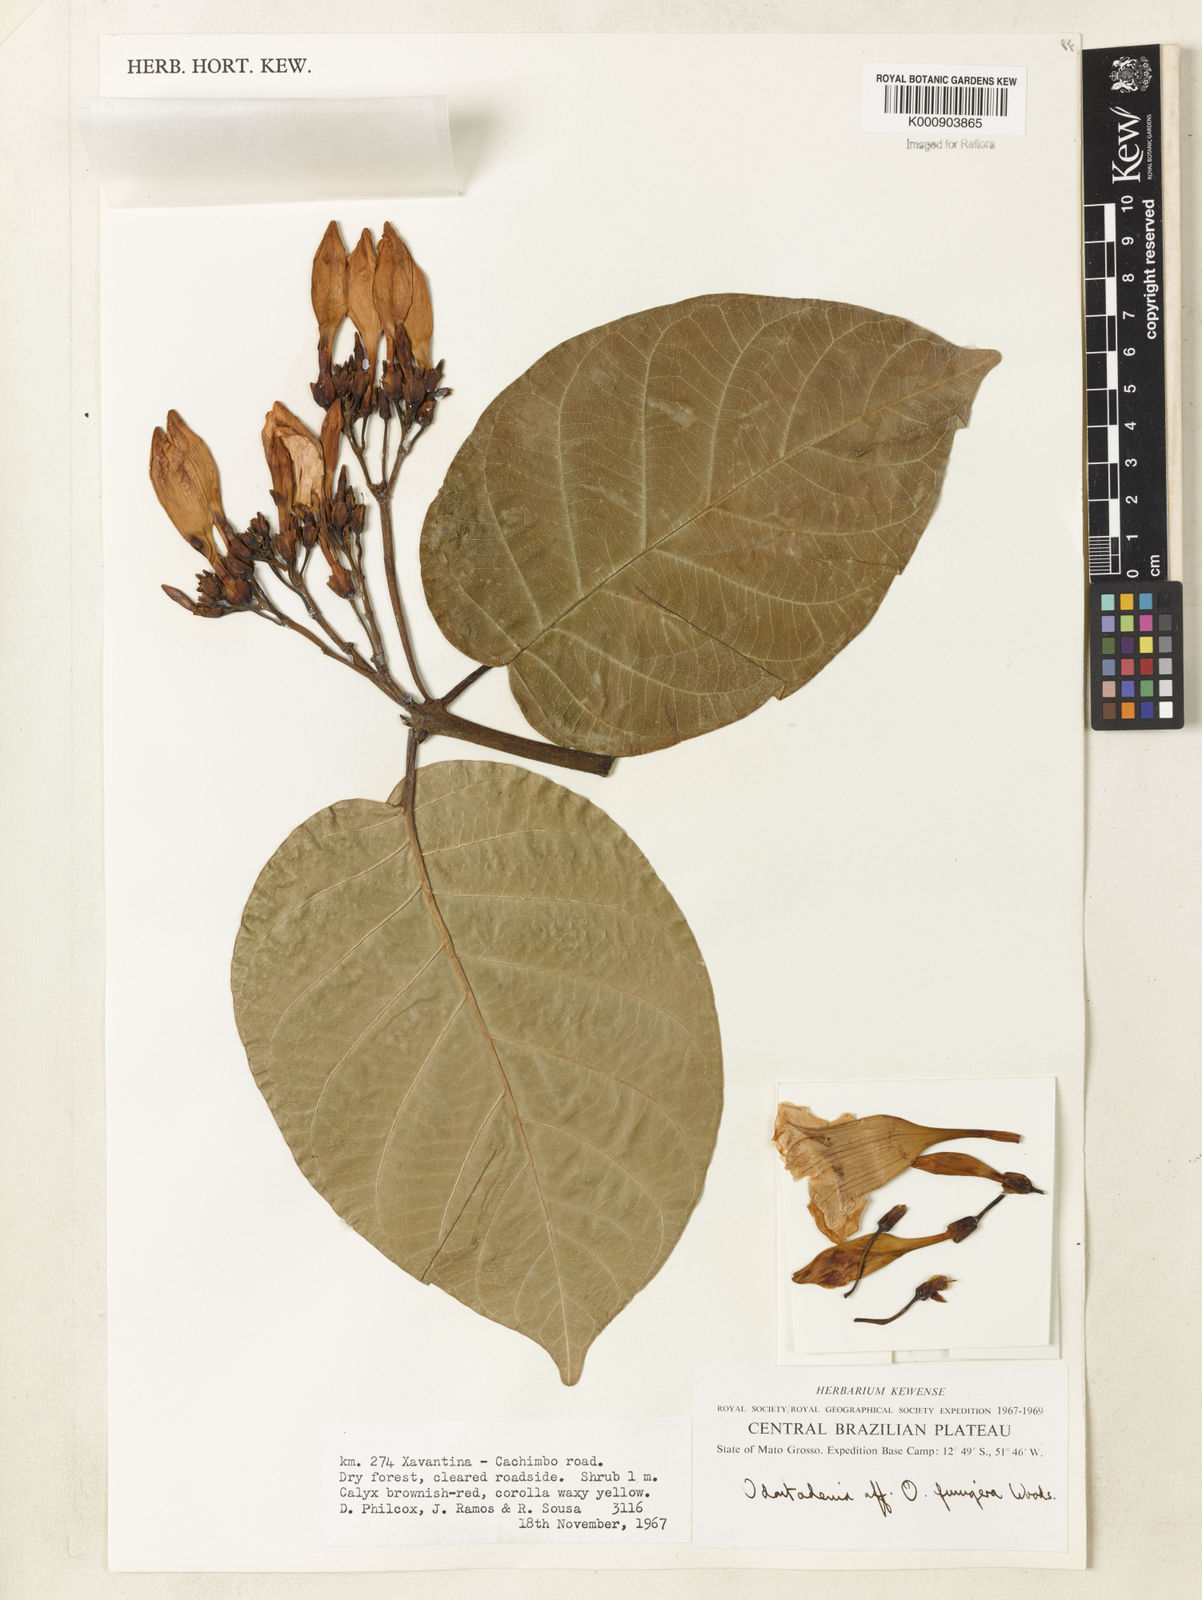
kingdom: Plantae
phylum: Tracheophyta
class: Magnoliopsida
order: Gentianales
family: Apocynaceae
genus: Odontadenia
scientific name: Odontadenia funigera
